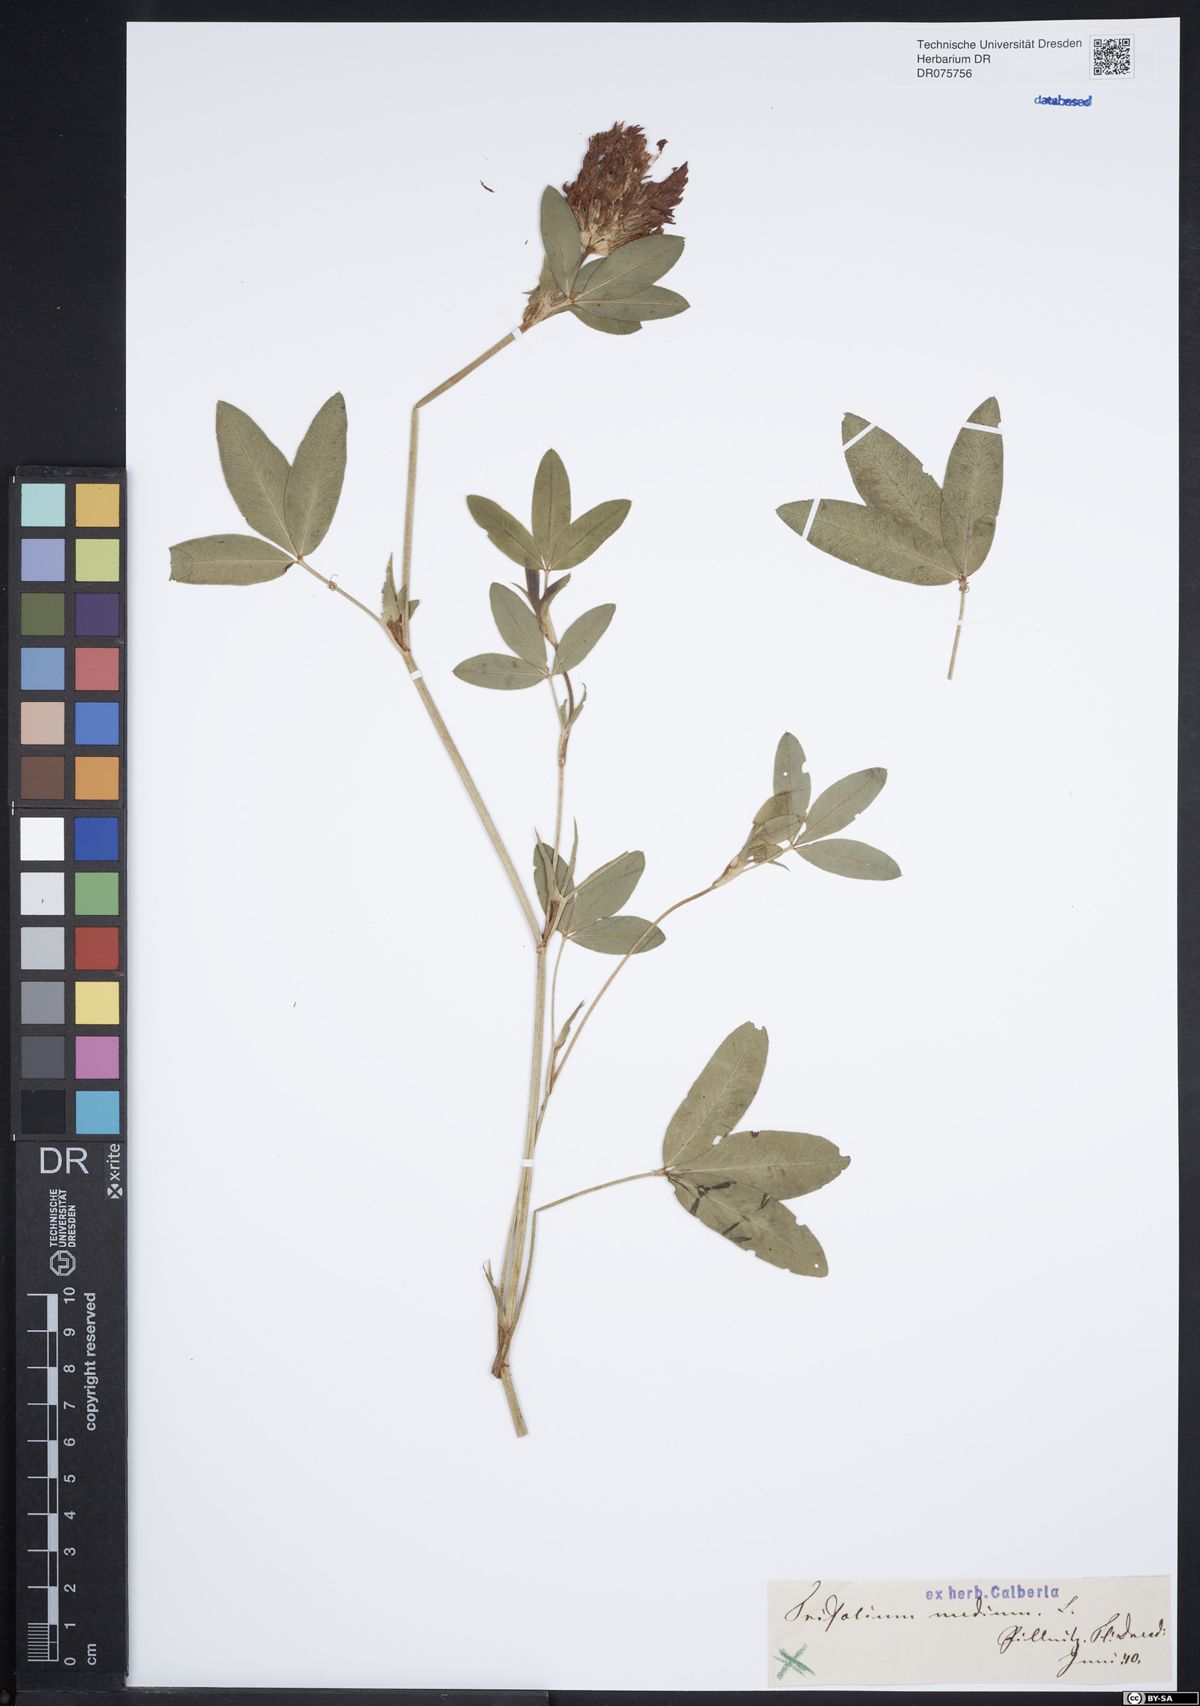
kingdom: Plantae
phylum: Tracheophyta
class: Magnoliopsida
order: Fabales
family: Fabaceae
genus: Trifolium
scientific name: Trifolium medium
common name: Zigzag clover
